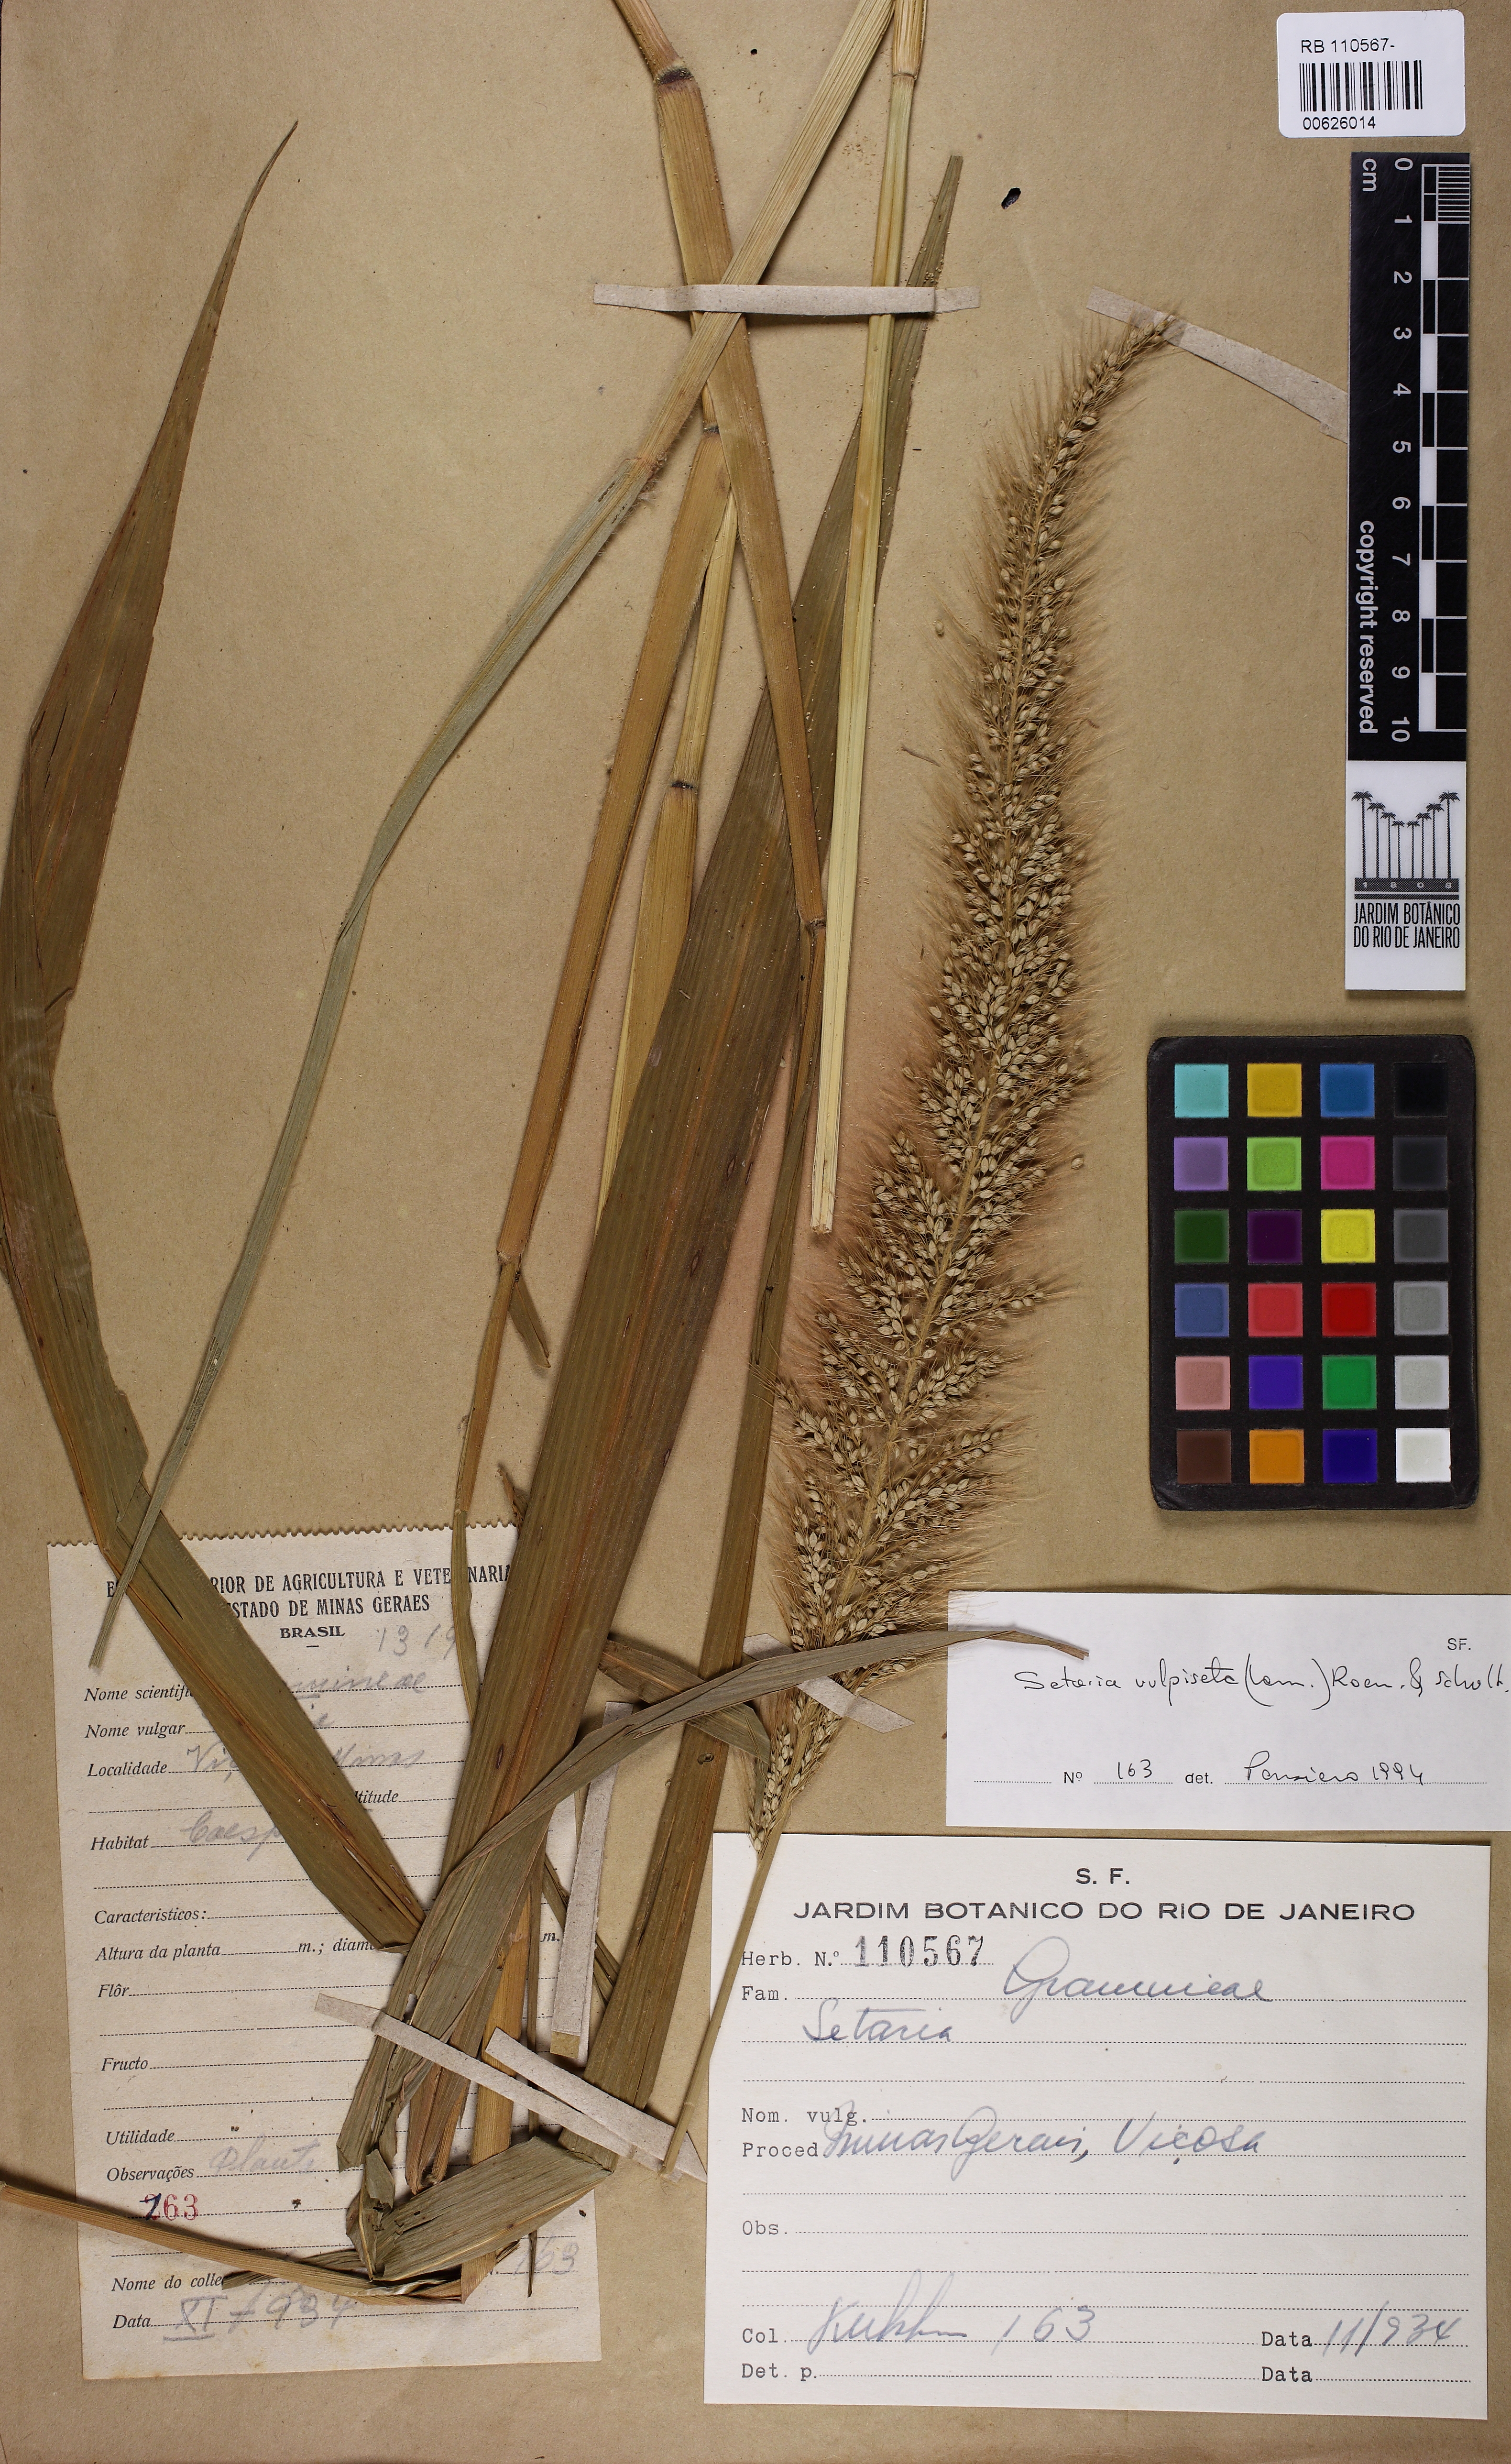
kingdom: Plantae
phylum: Tracheophyta
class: Liliopsida
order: Poales
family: Poaceae
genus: Setaria
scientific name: Setaria vulpiseta
